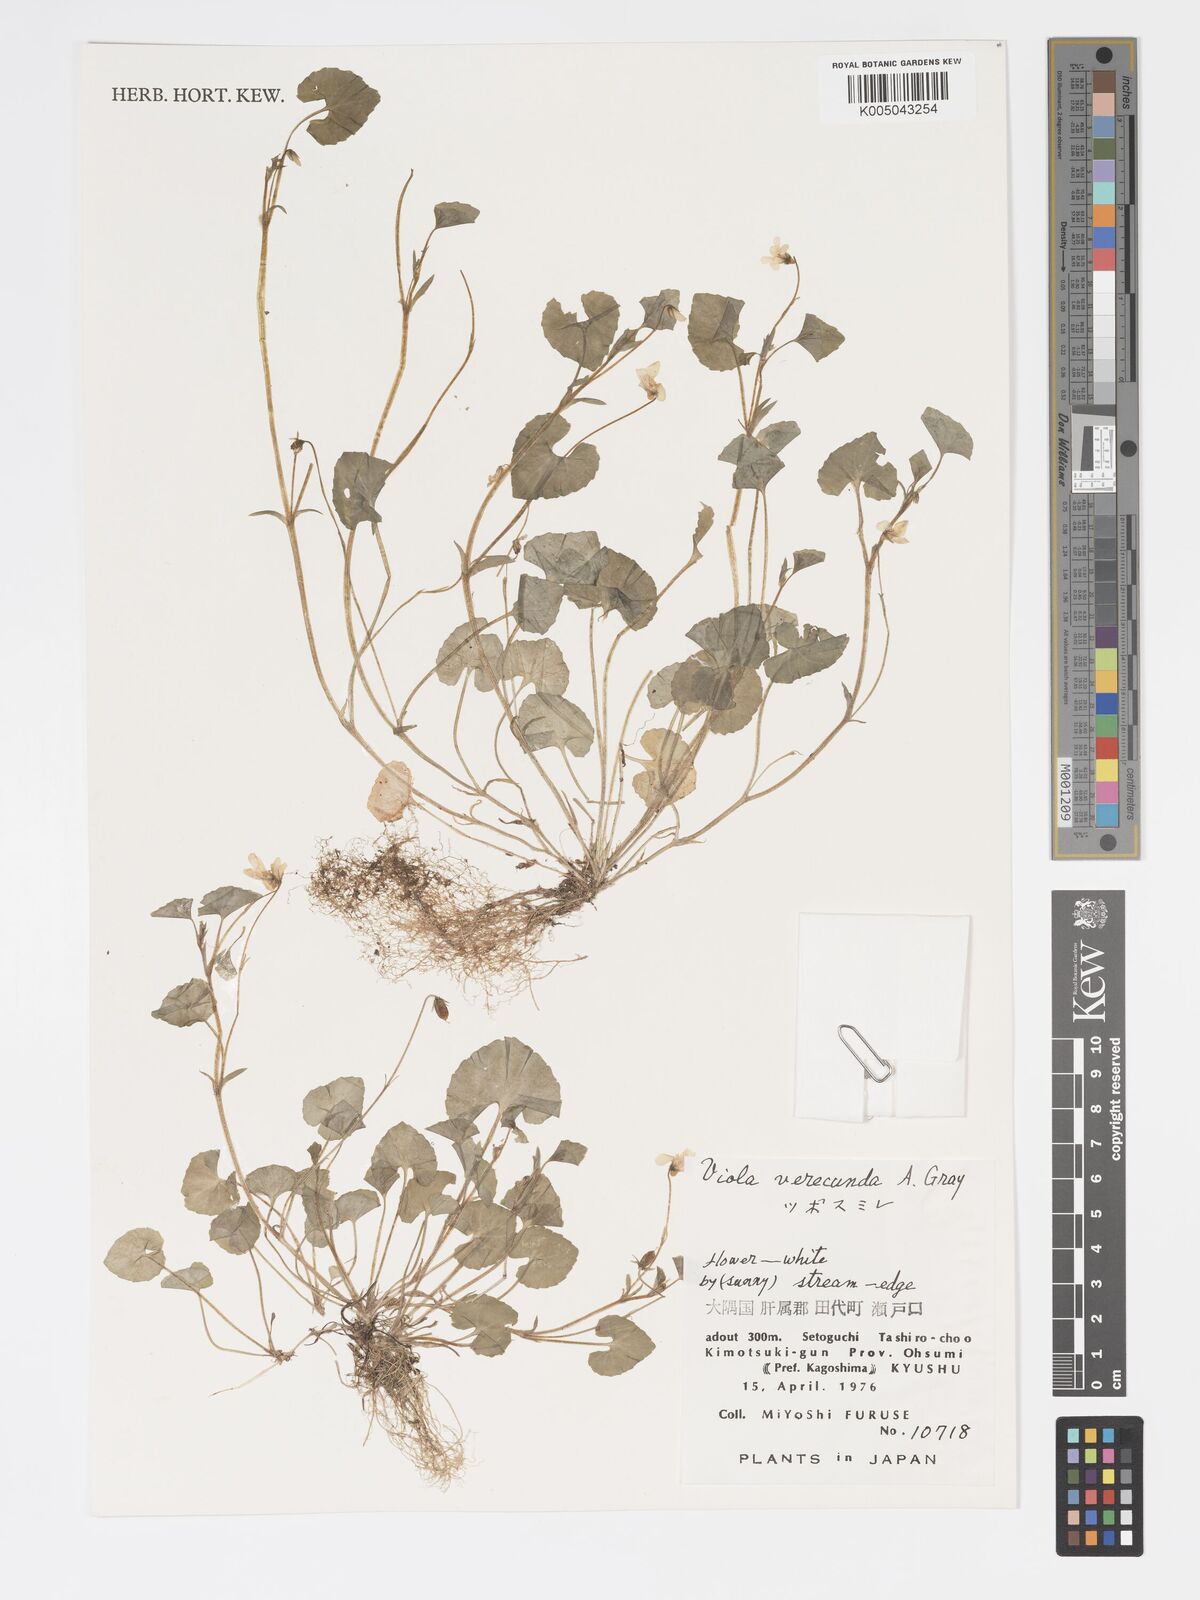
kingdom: Plantae
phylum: Tracheophyta
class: Magnoliopsida
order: Malpighiales
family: Violaceae
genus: Viola
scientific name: Viola hamiltoniana
